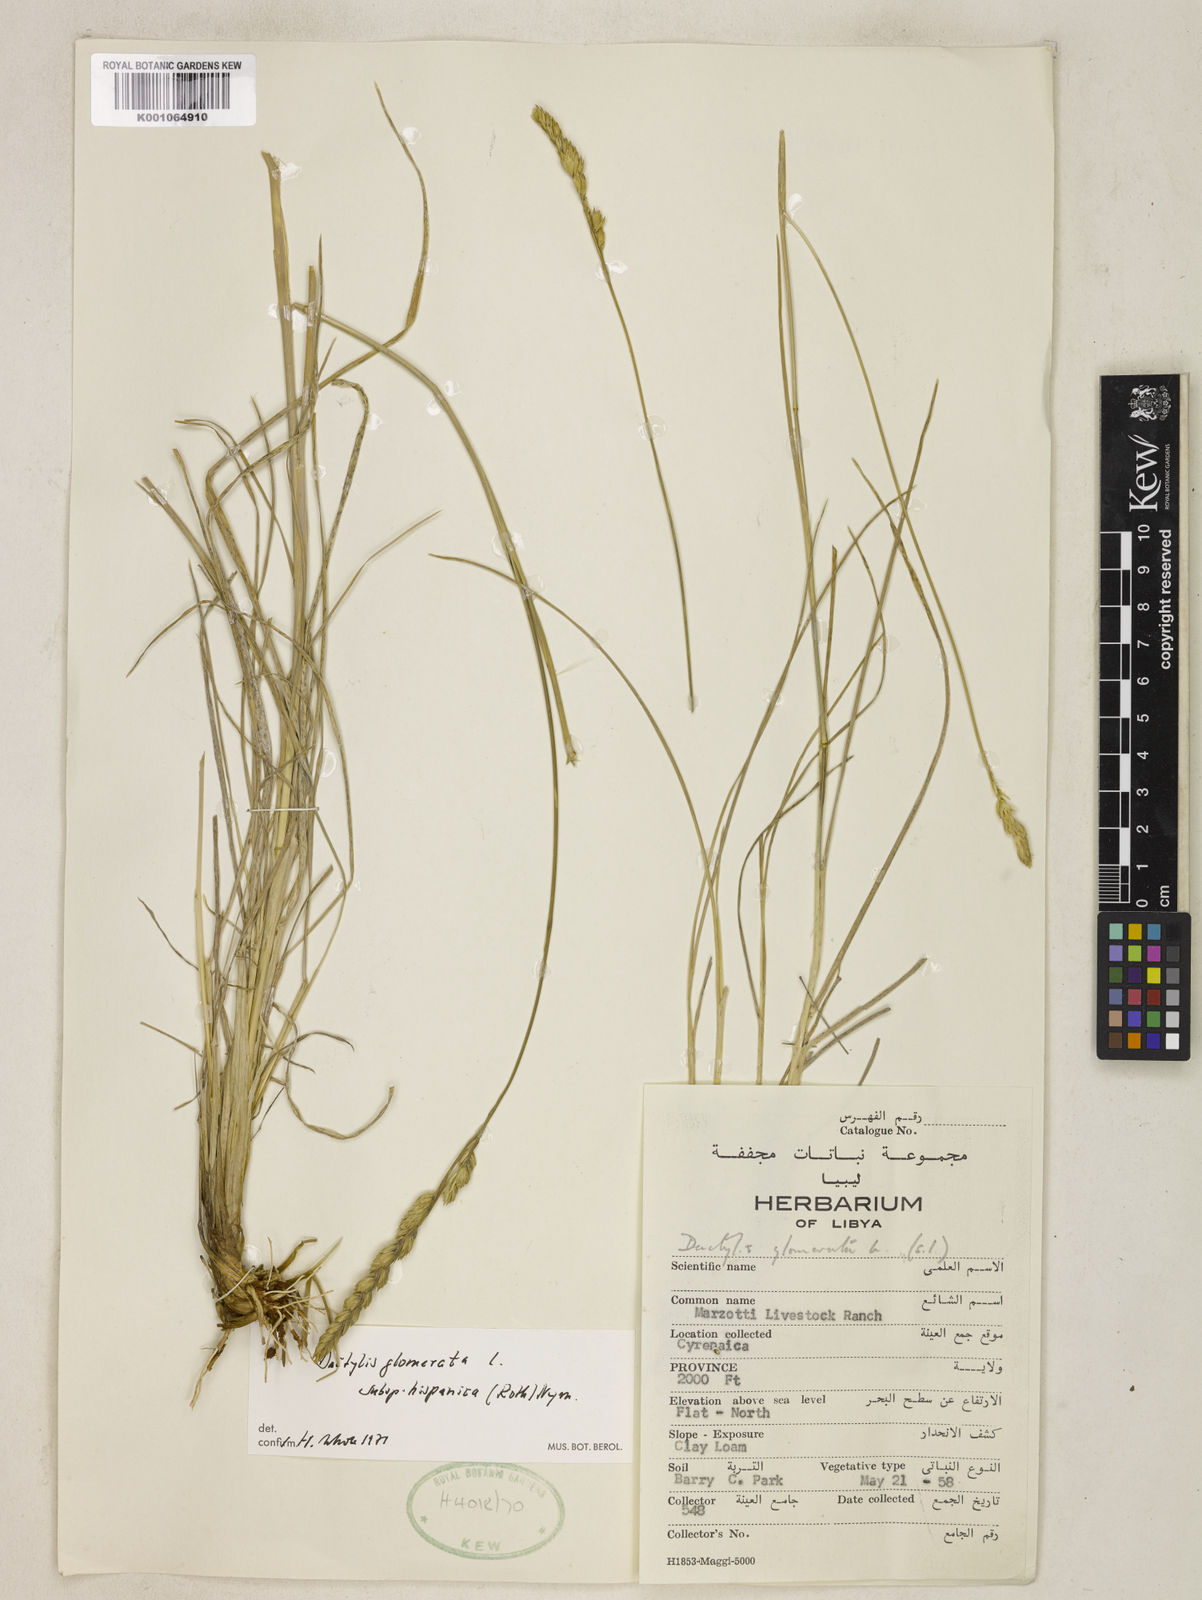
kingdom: Plantae
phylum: Tracheophyta
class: Liliopsida
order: Poales
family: Poaceae
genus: Dactylis
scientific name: Dactylis glomerata
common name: Orchardgrass
